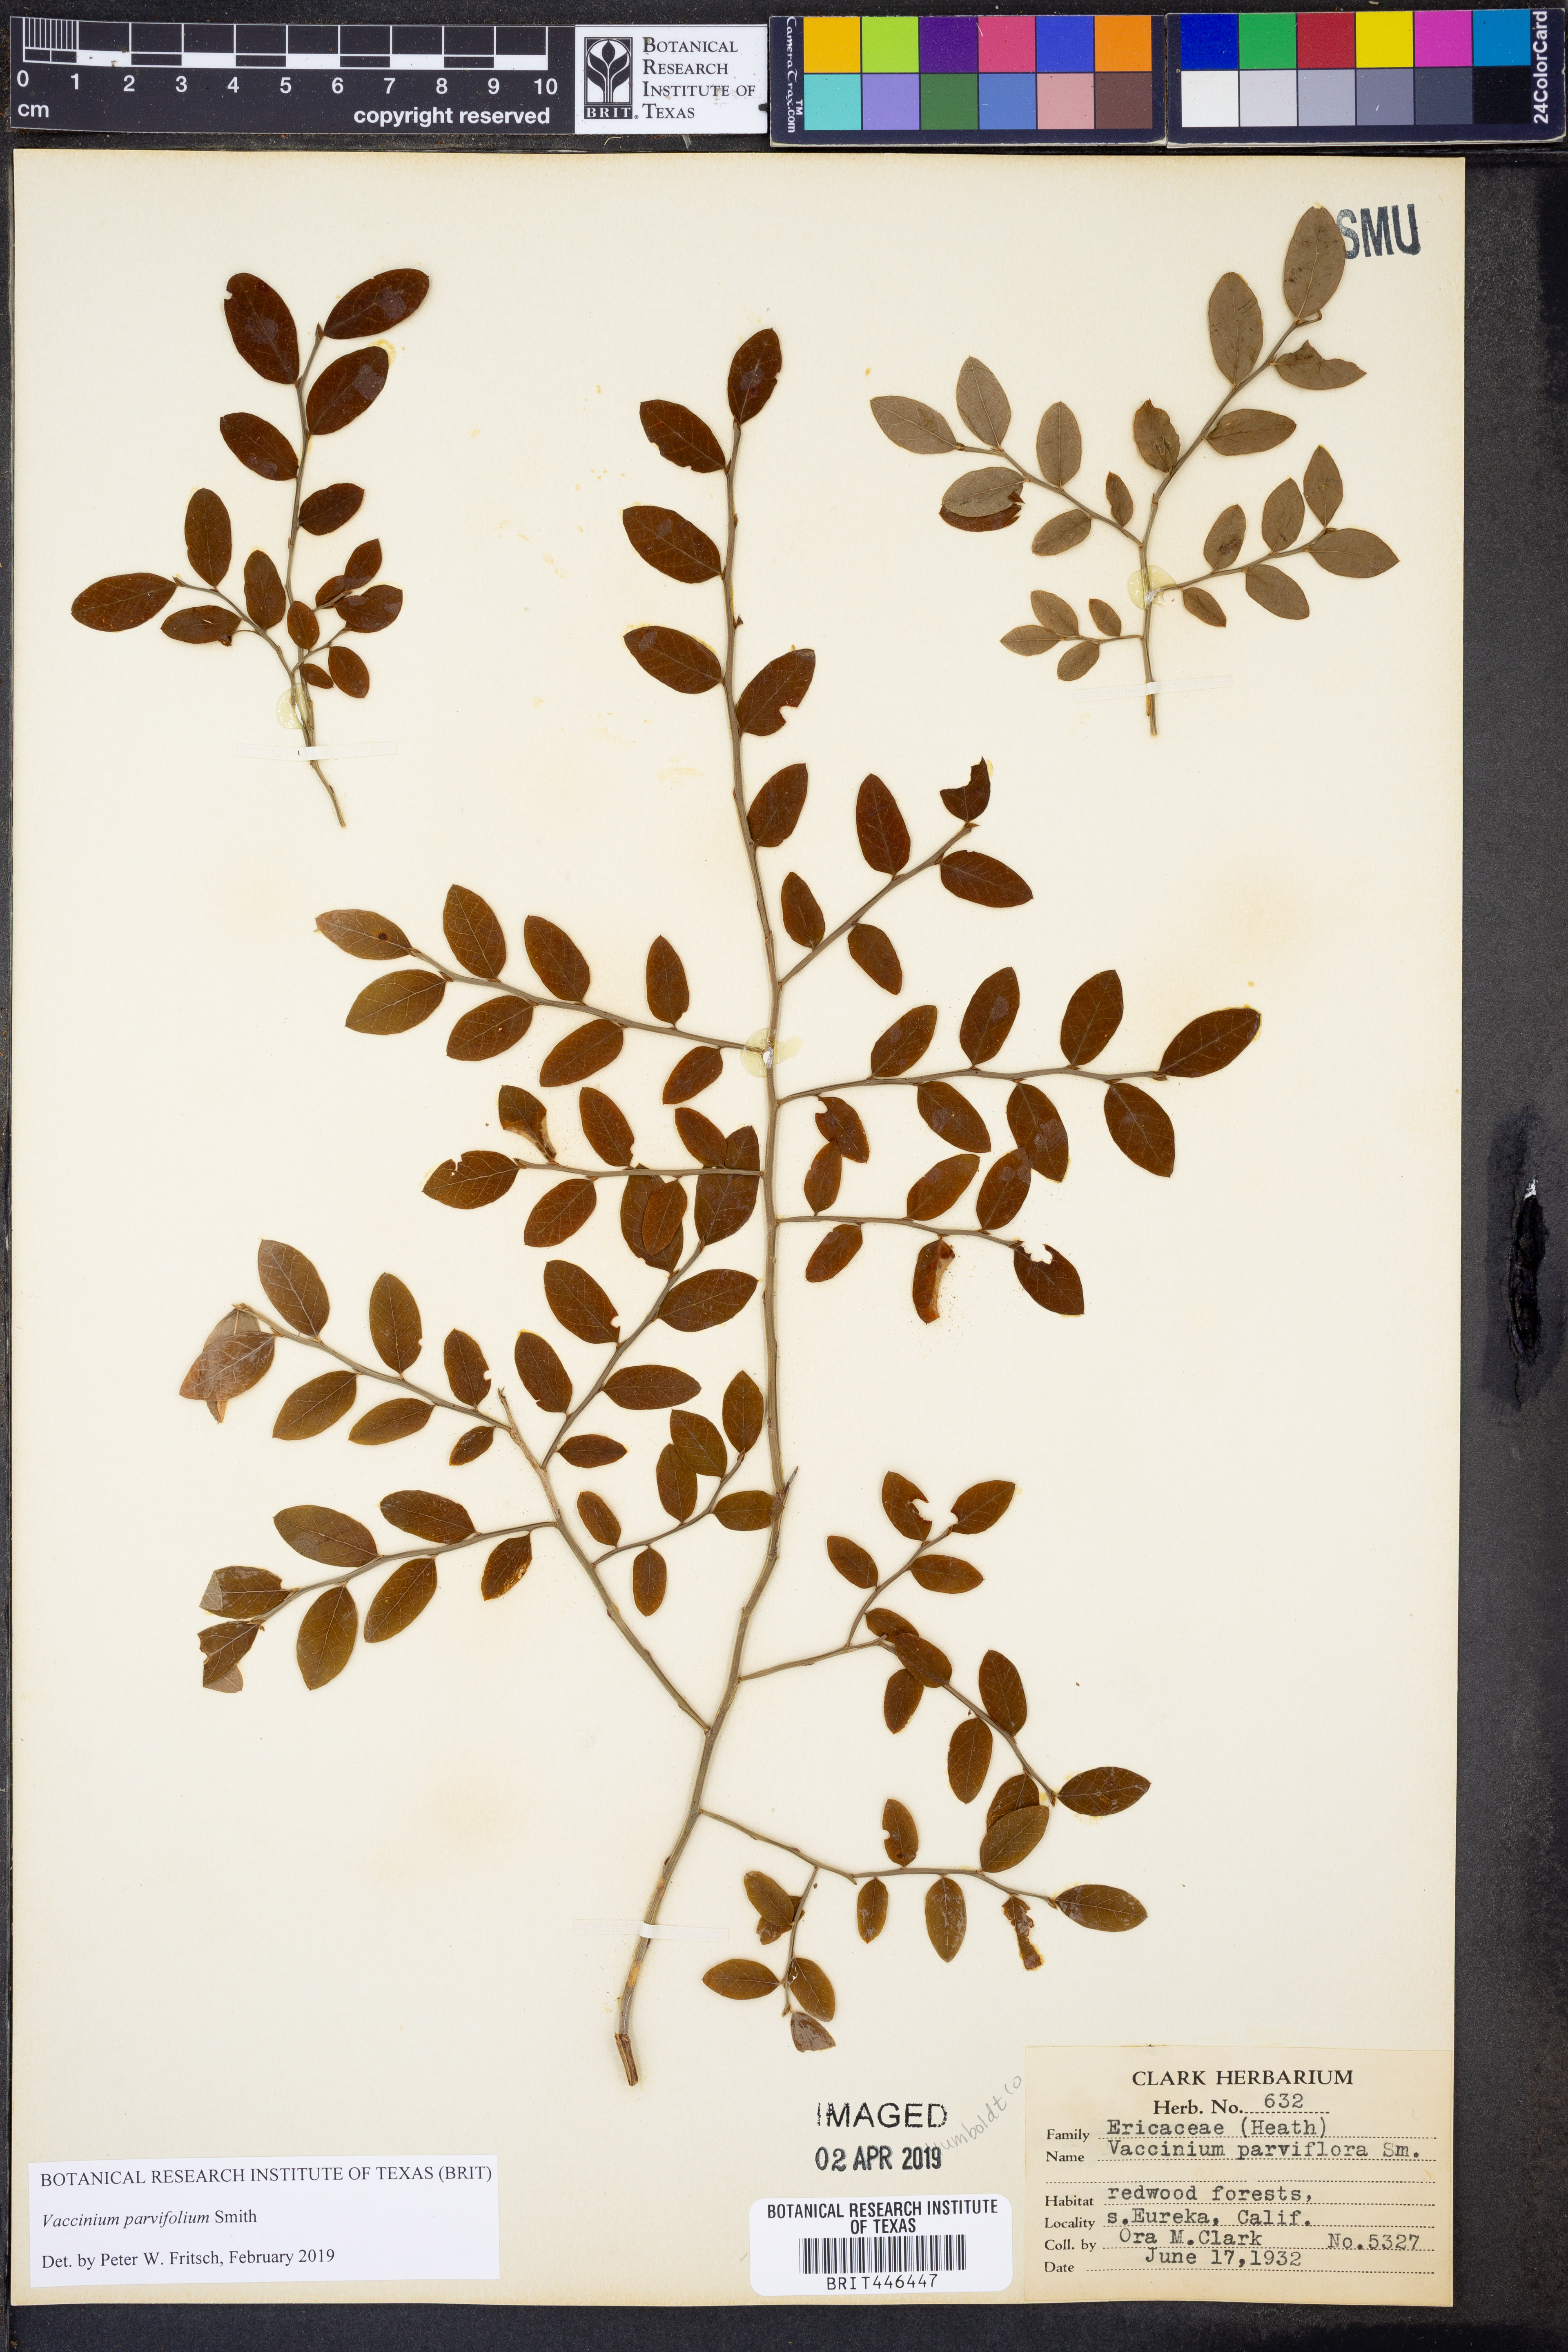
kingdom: Plantae
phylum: Tracheophyta
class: Magnoliopsida
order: Ericales
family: Ericaceae
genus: Vaccinium
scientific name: Vaccinium parvifolium
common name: Red-huckleberry
